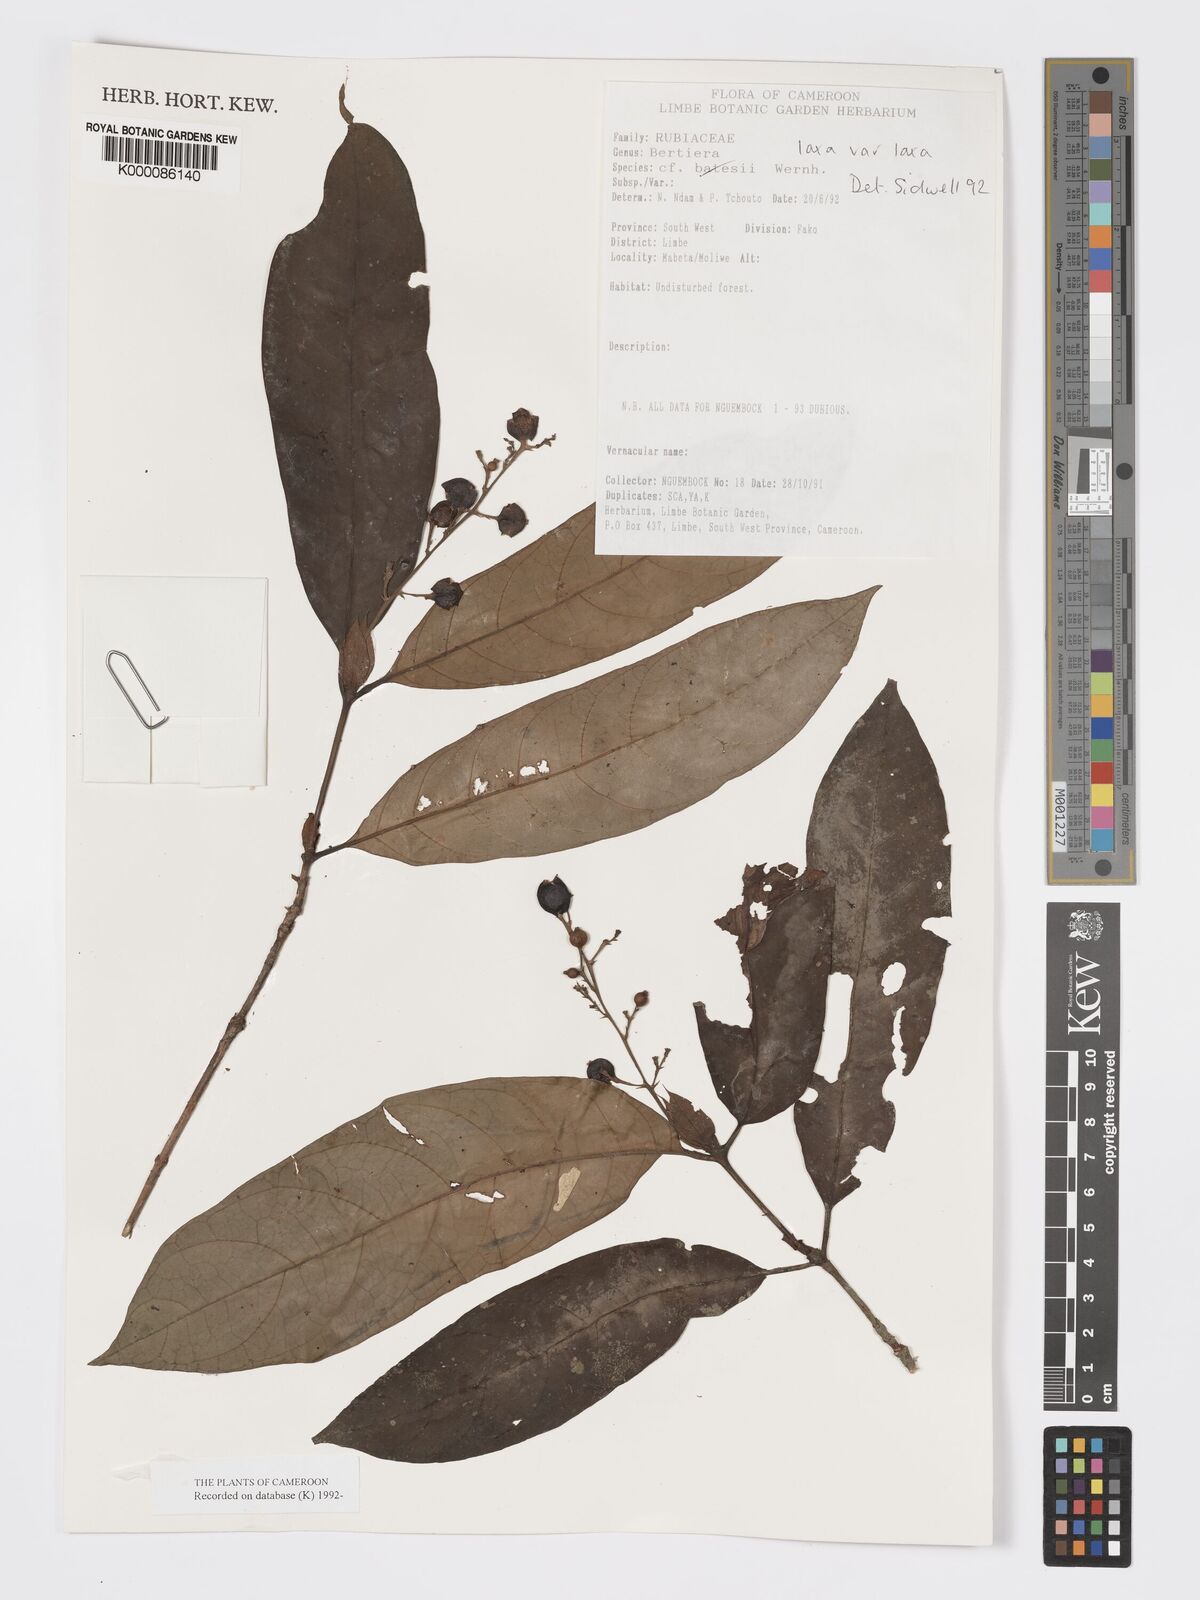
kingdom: Plantae
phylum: Tracheophyta
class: Magnoliopsida
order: Gentianales
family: Rubiaceae
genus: Bertiera
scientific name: Bertiera laxa
